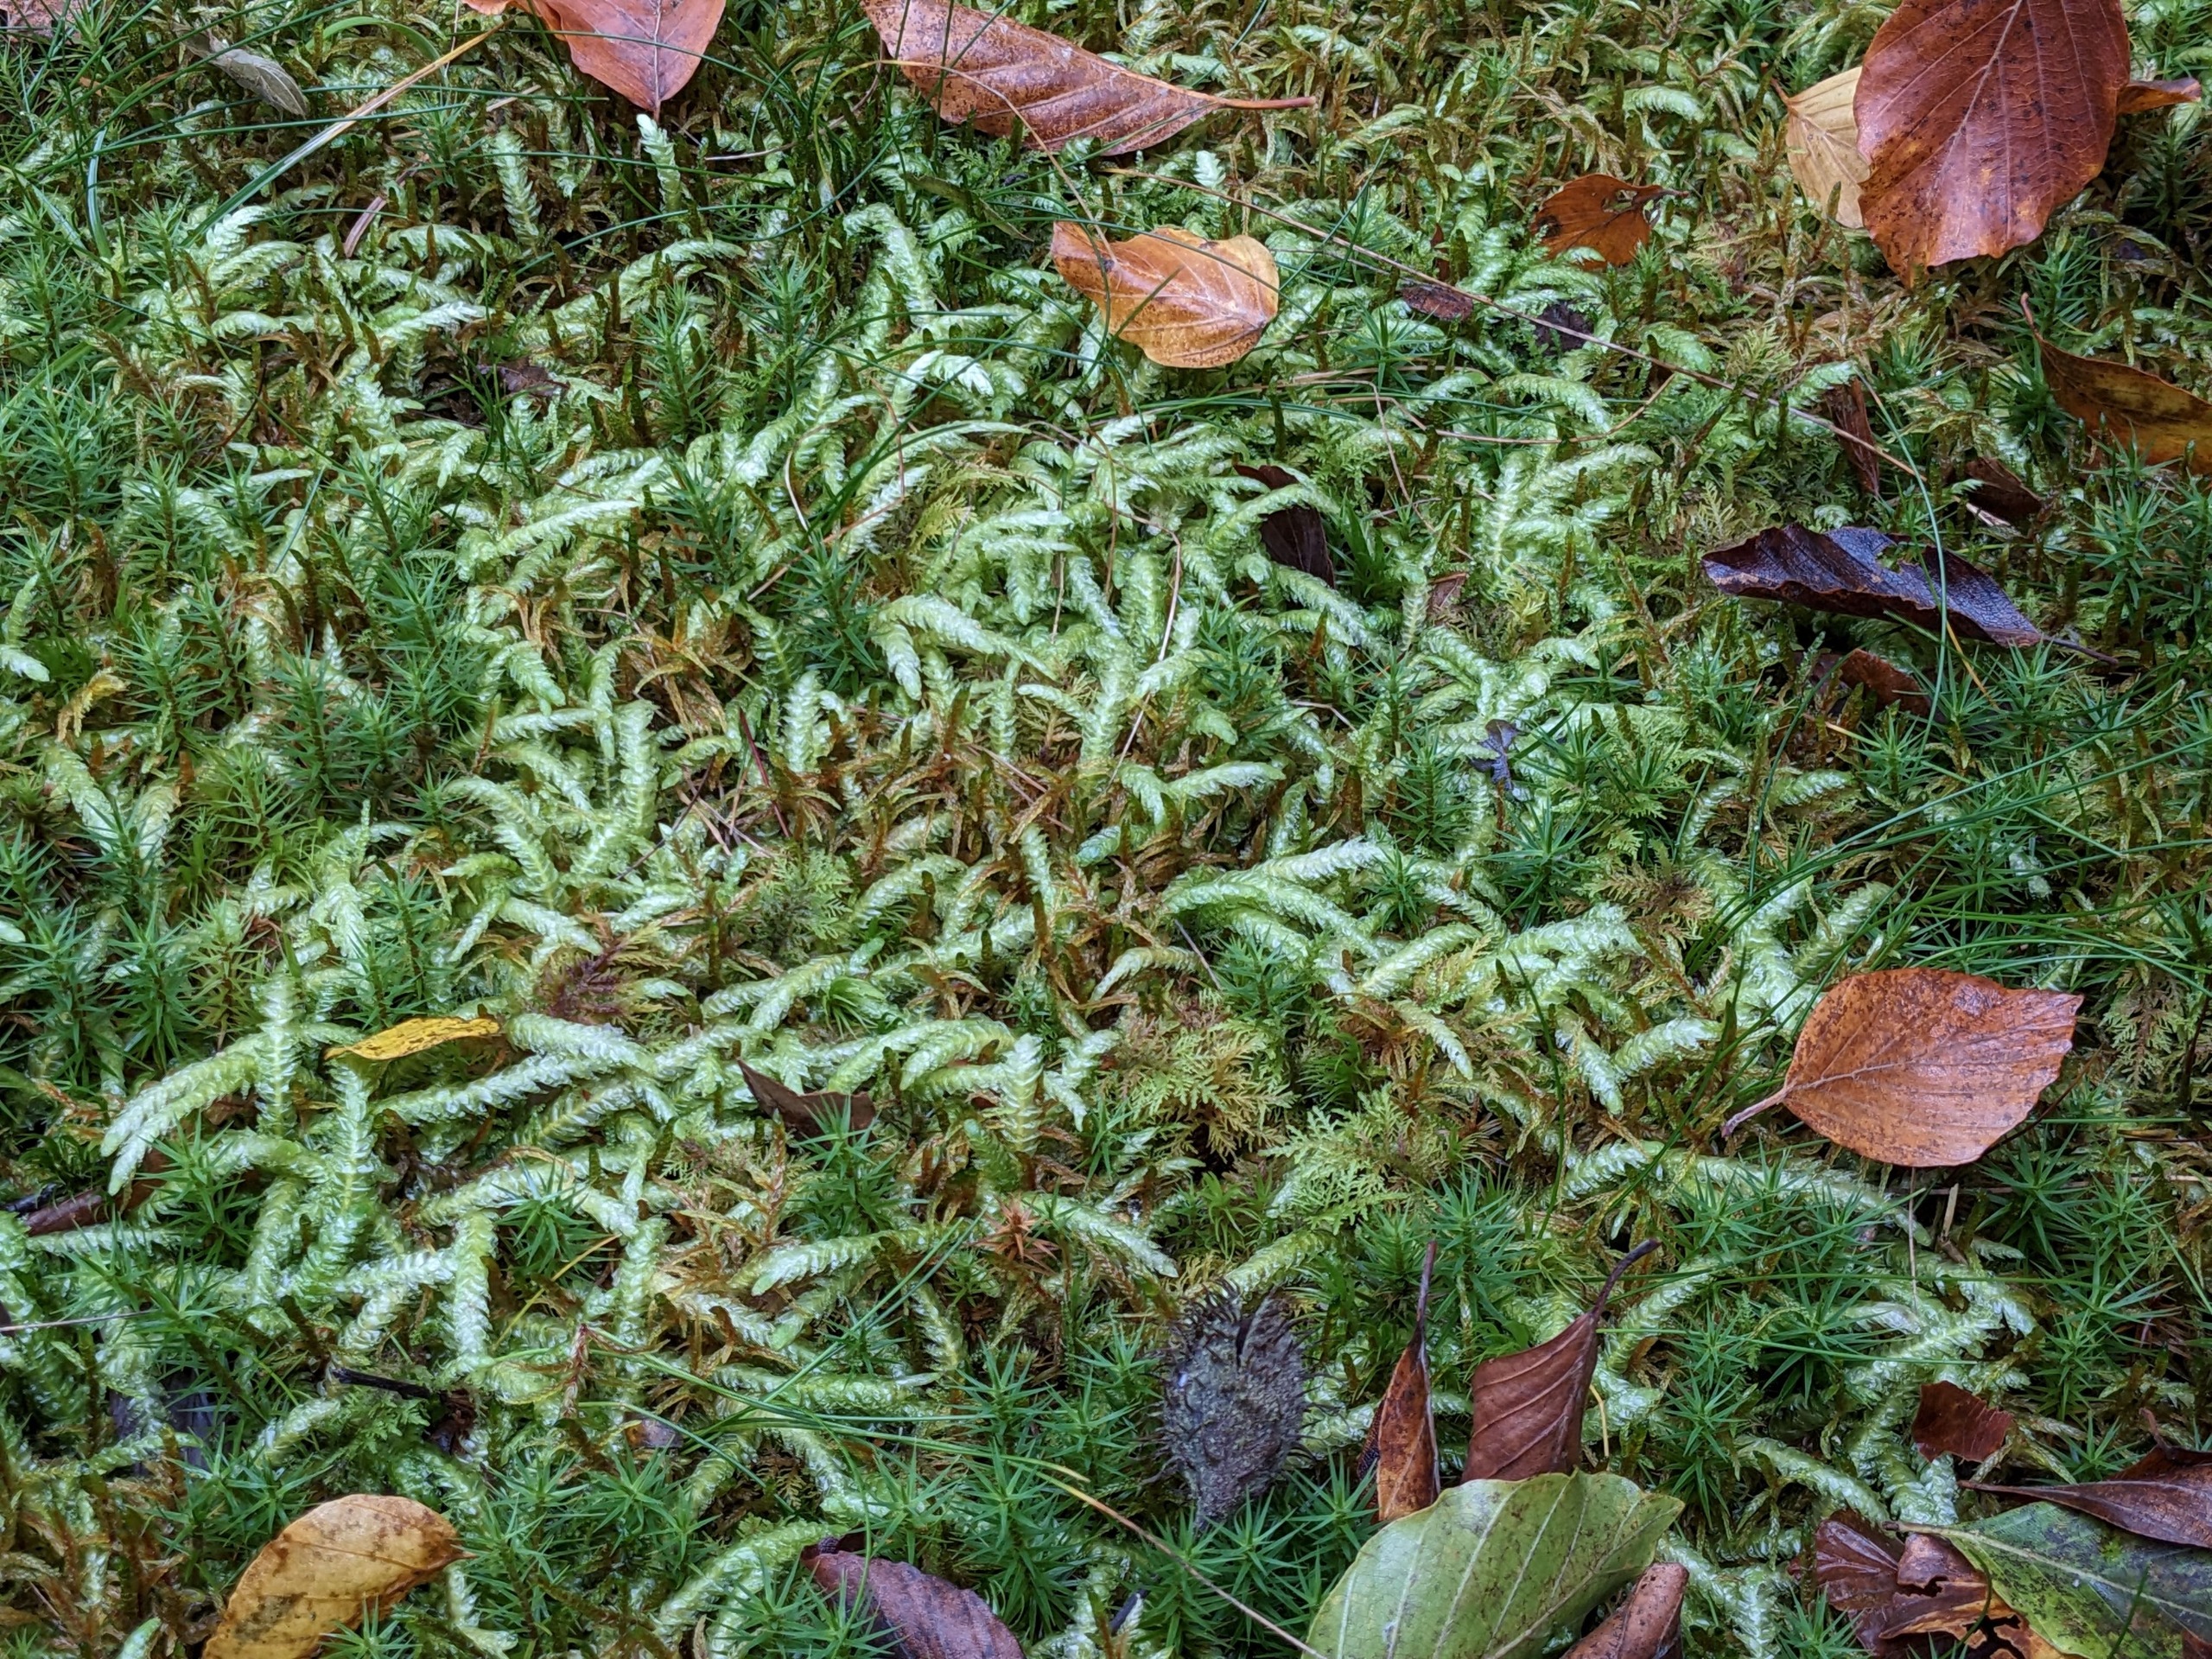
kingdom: Plantae
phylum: Bryophyta
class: Bryopsida
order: Hypnales
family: Plagiotheciaceae
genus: Plagiothecium
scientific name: Plagiothecium undulatum
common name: Bølget tæppemos
